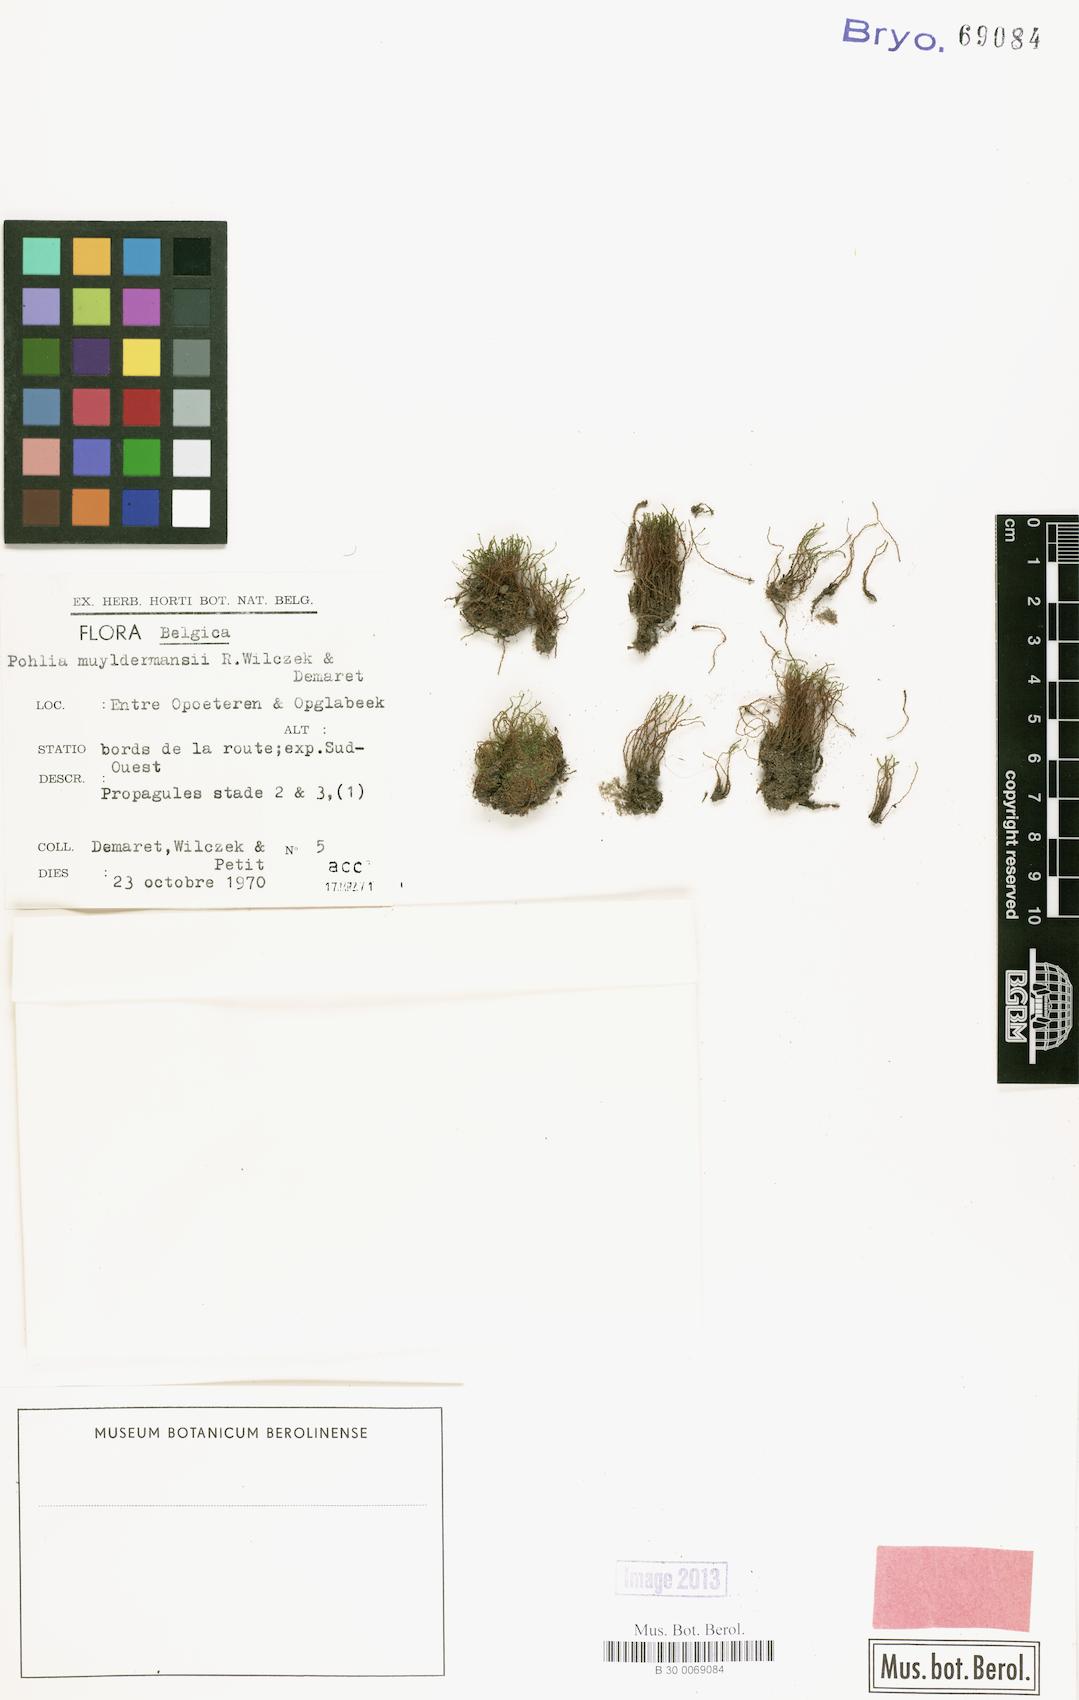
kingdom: Plantae
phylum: Bryophyta
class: Bryopsida
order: Bryales
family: Mniaceae
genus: Pohlia
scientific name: Pohlia flexuosa
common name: Orange-bud thread-moss
